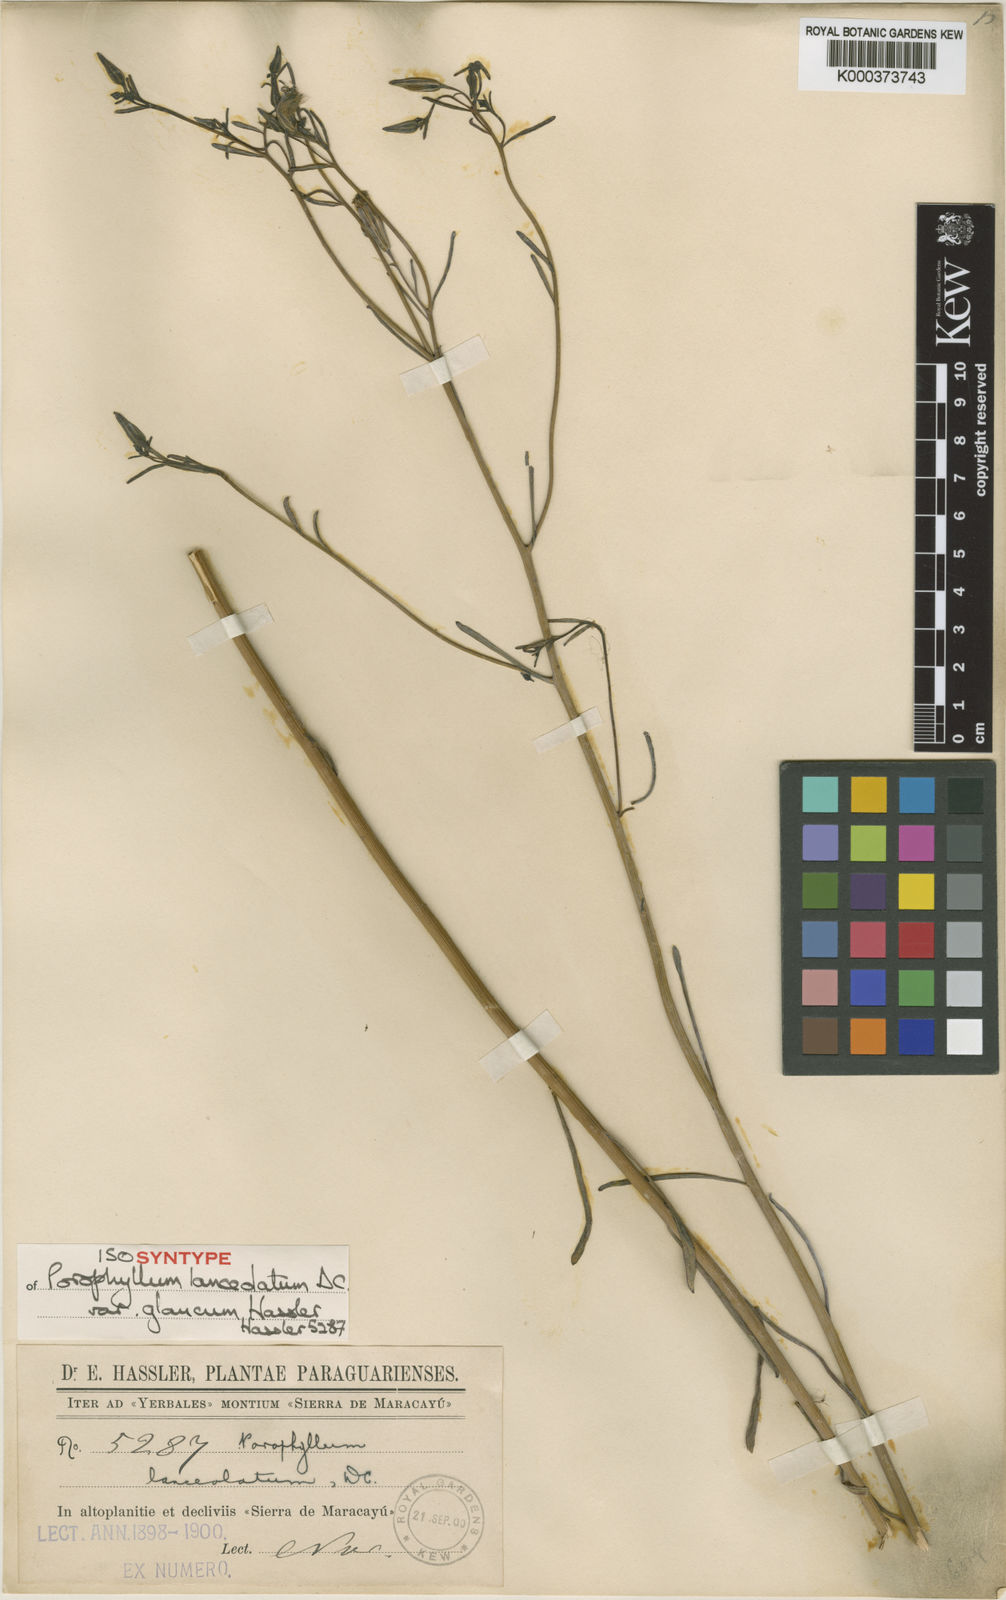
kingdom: Plantae
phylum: Tracheophyta
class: Magnoliopsida
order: Asterales
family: Asteraceae
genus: Porophyllum
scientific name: Porophyllum lanceolatum
